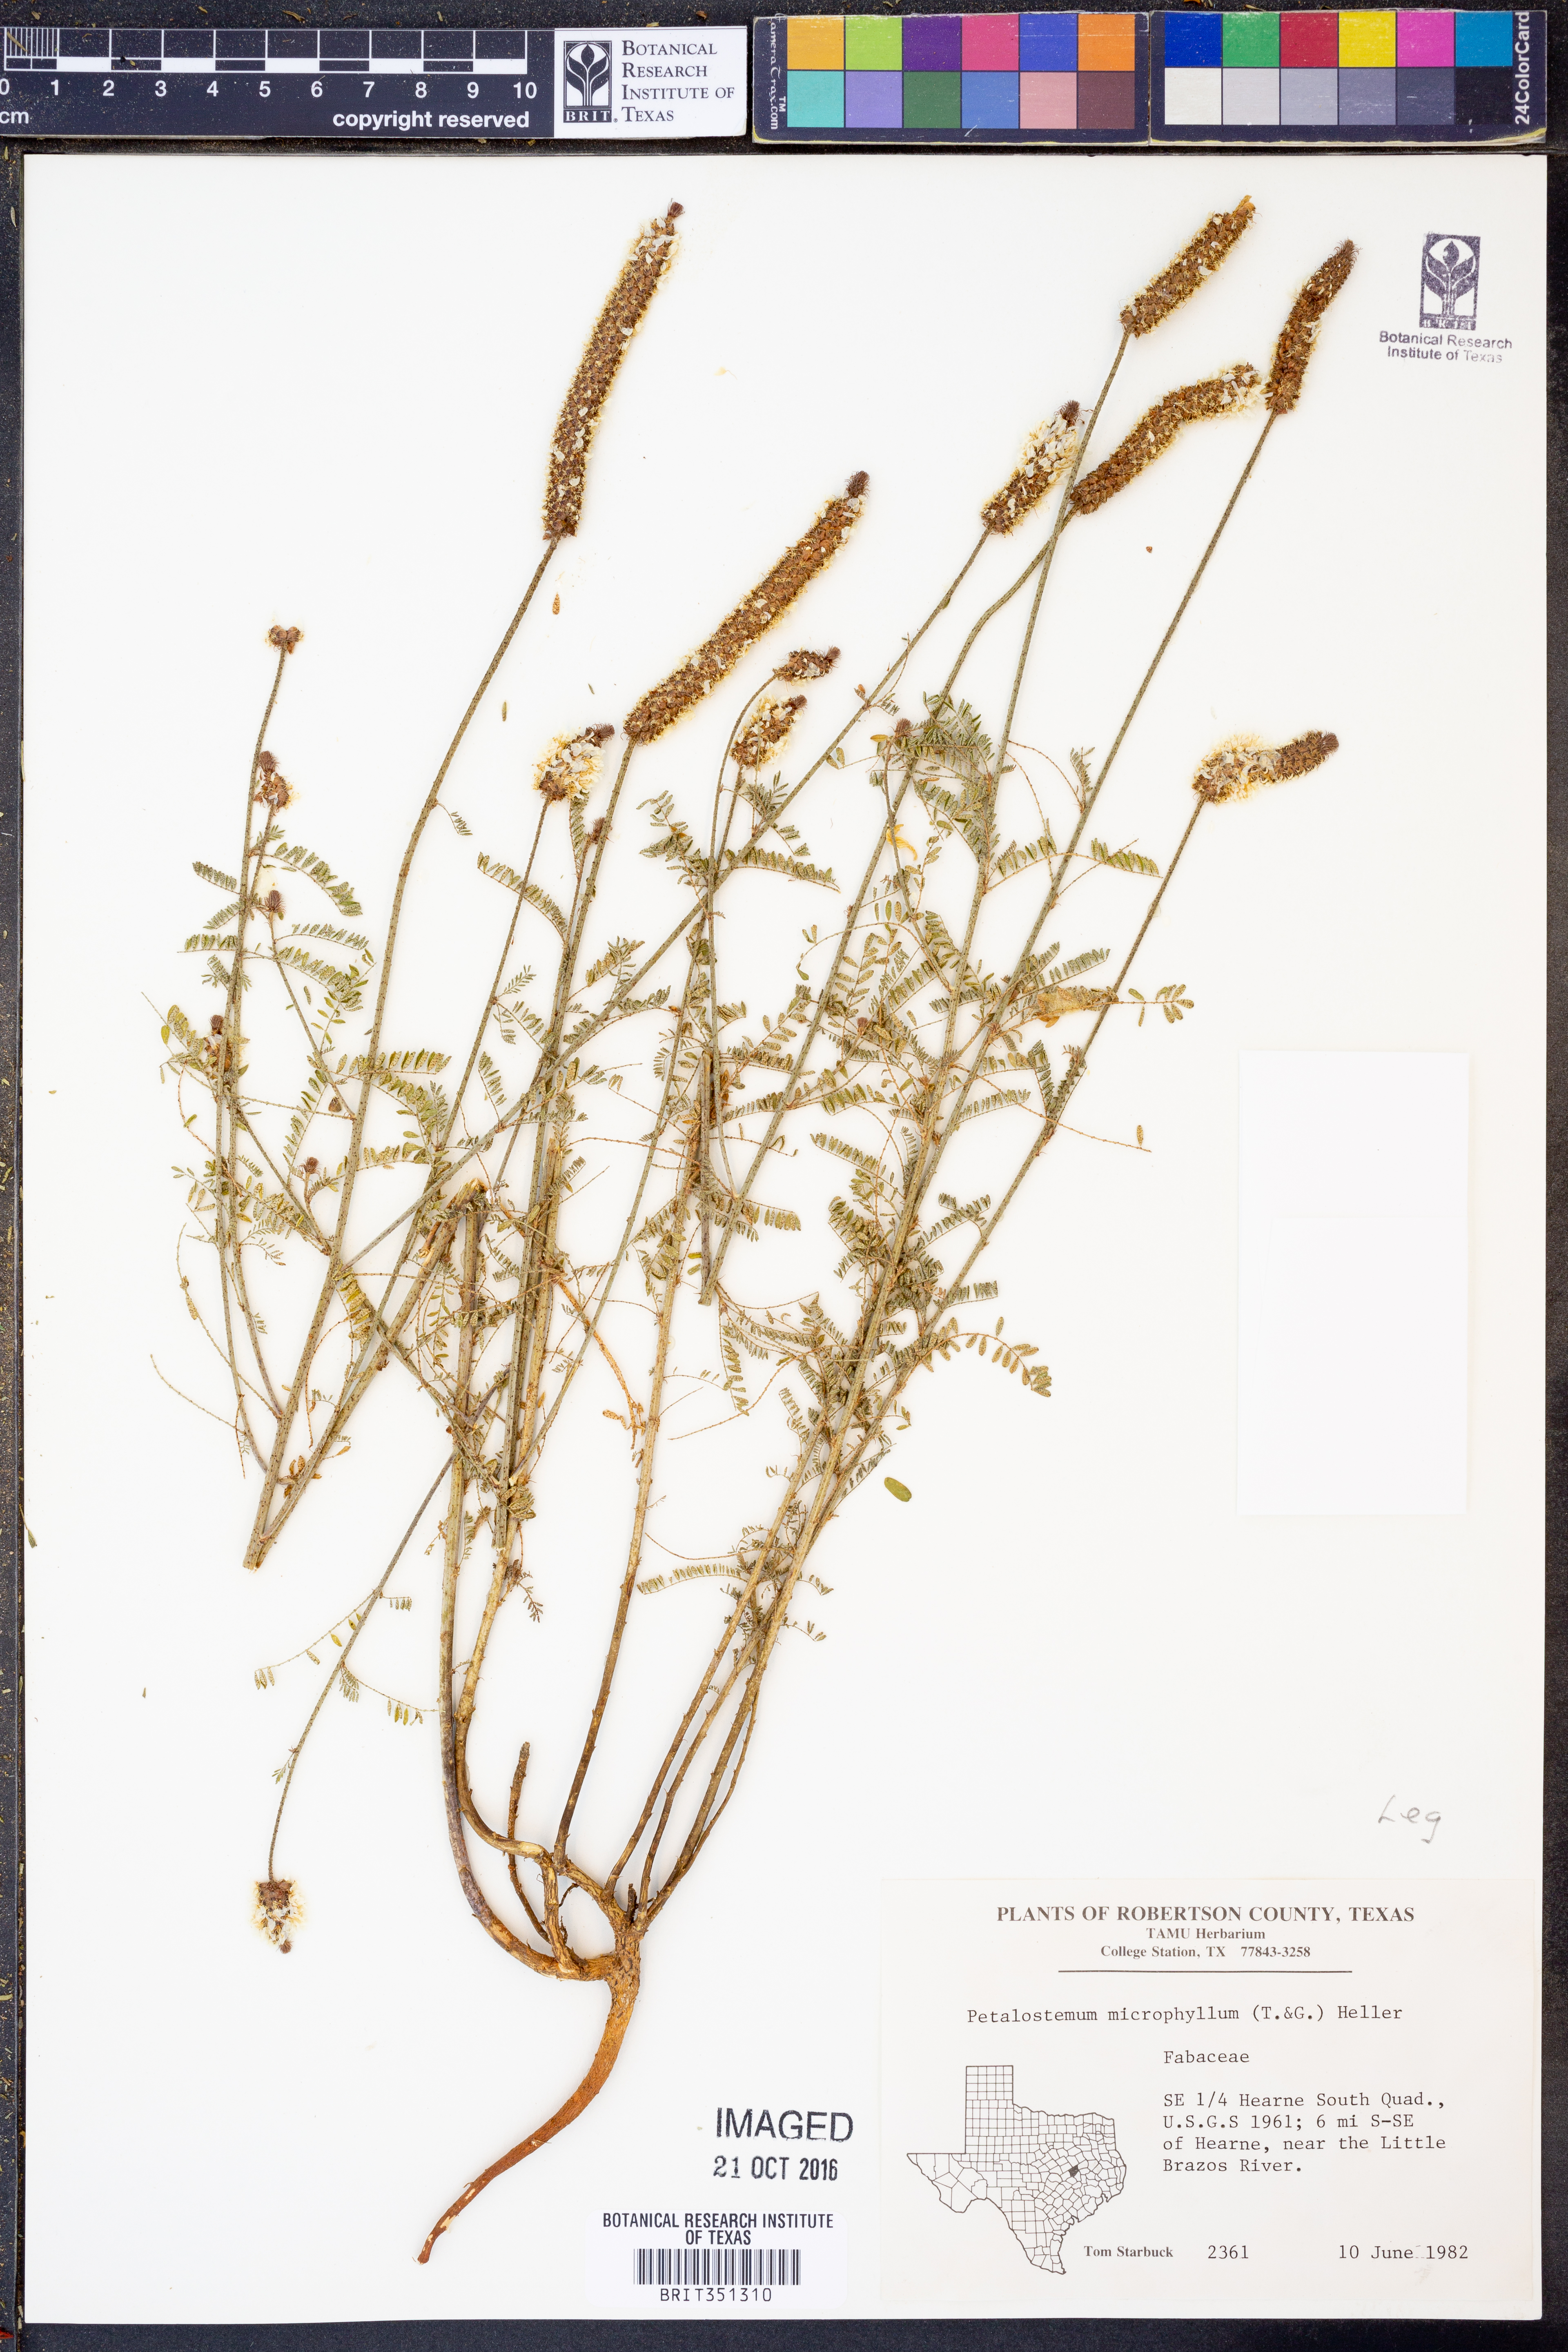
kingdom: Plantae
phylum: Tracheophyta
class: Magnoliopsida
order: Fabales
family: Fabaceae
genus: Dalea
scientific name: Dalea drummondiana
